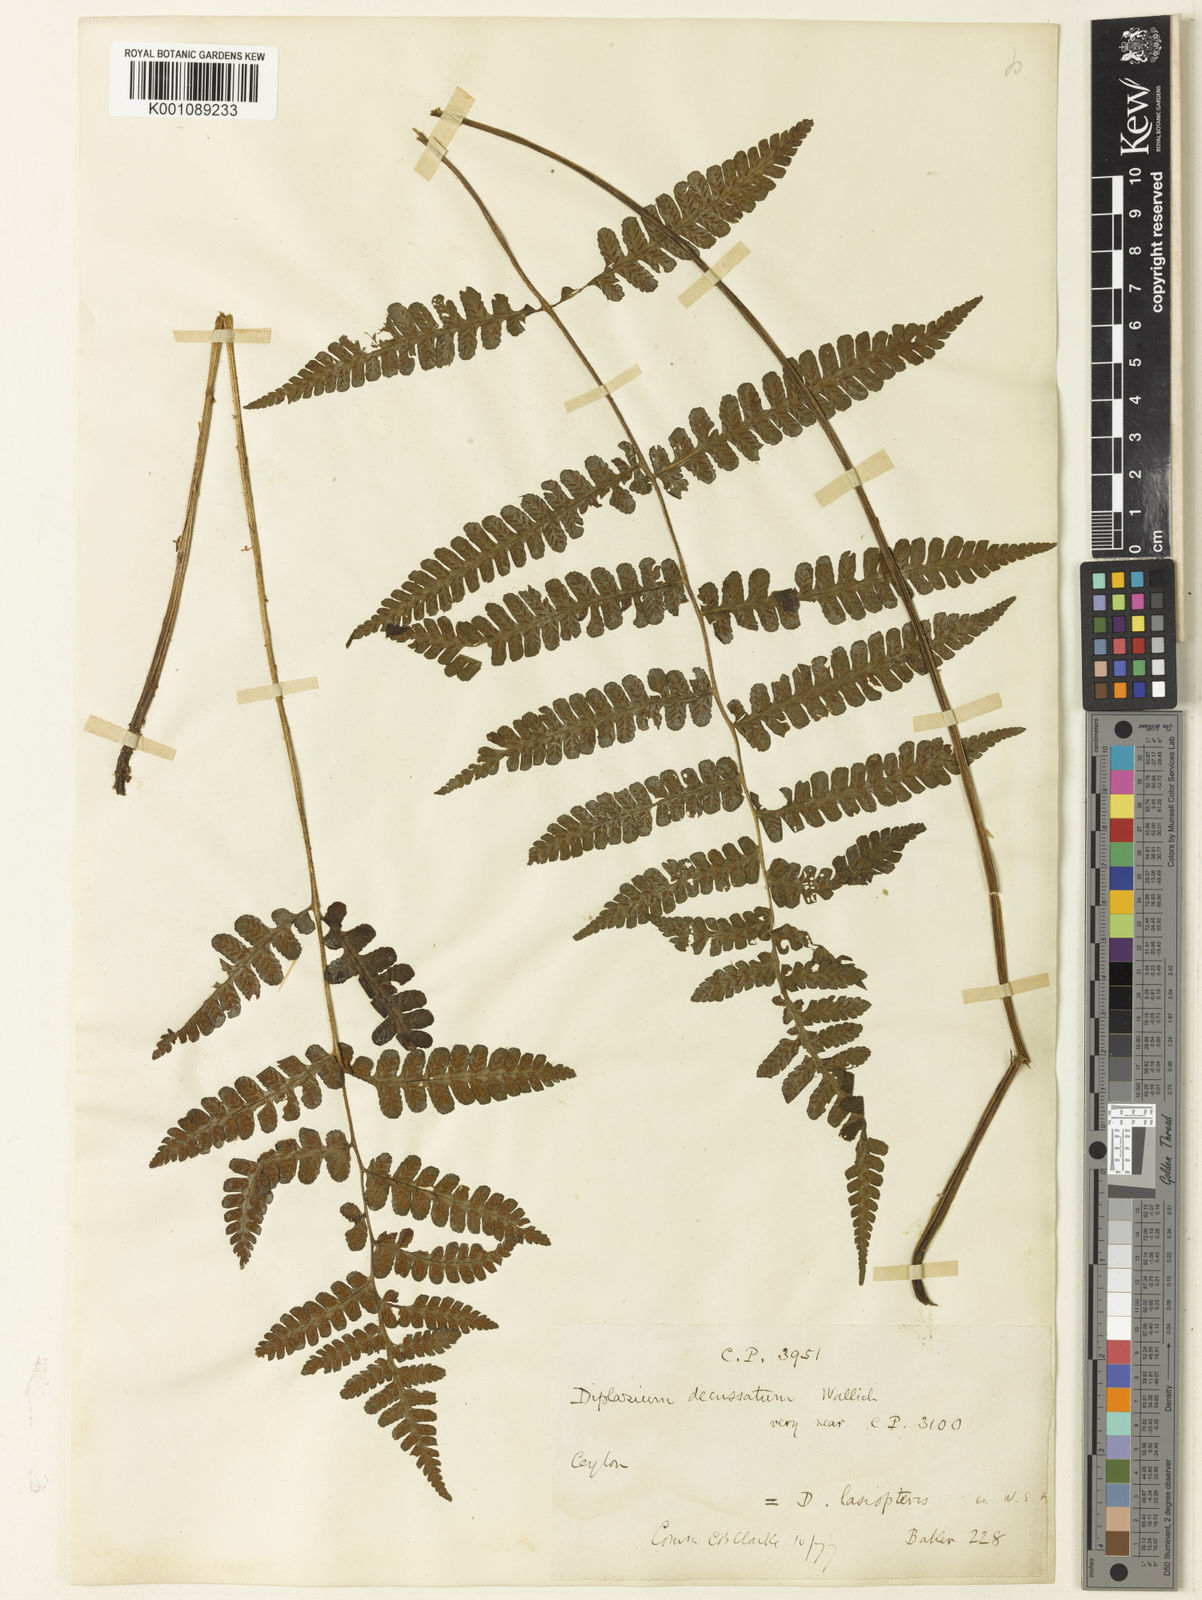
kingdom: Plantae
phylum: Tracheophyta
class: Polypodiopsida
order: Polypodiales
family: Athyriaceae
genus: Deparia
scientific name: Deparia
